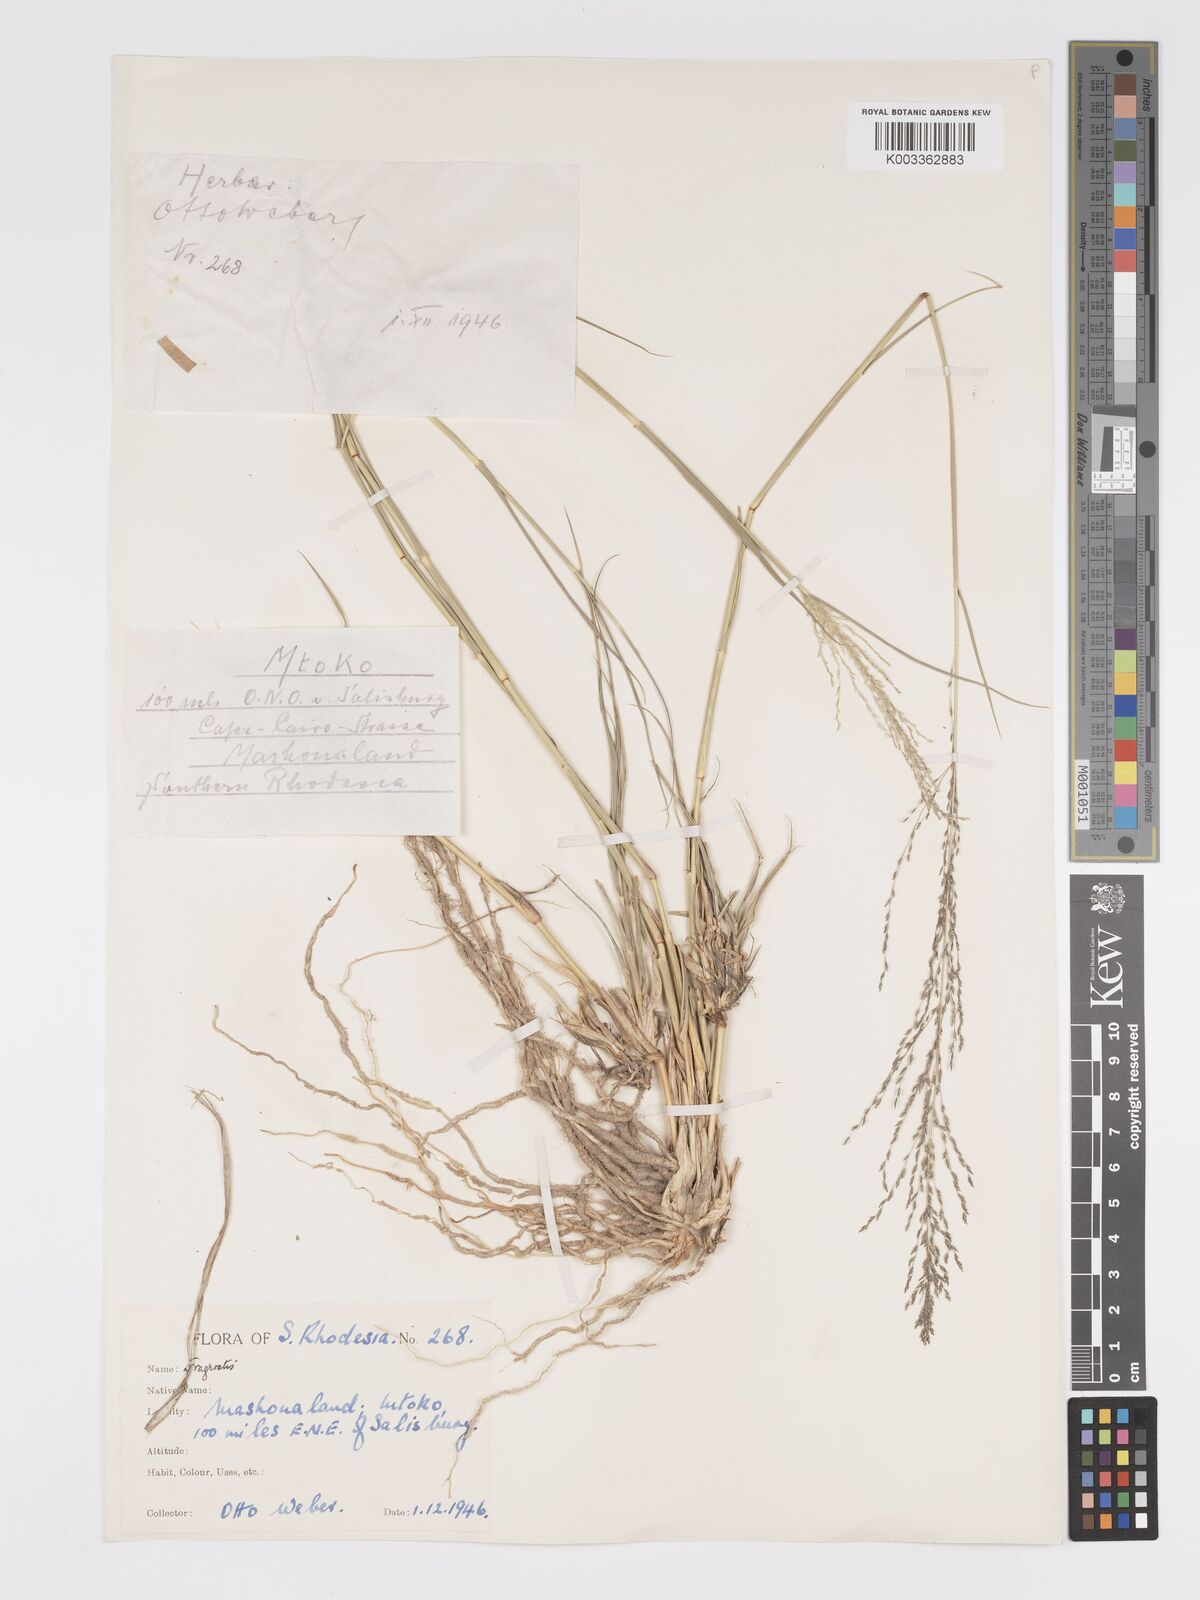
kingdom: Plantae
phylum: Tracheophyta
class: Liliopsida
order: Poales
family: Poaceae
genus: Eragrostis
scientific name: Eragrostis cylindriflora
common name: Cylinderflower lovegrass
